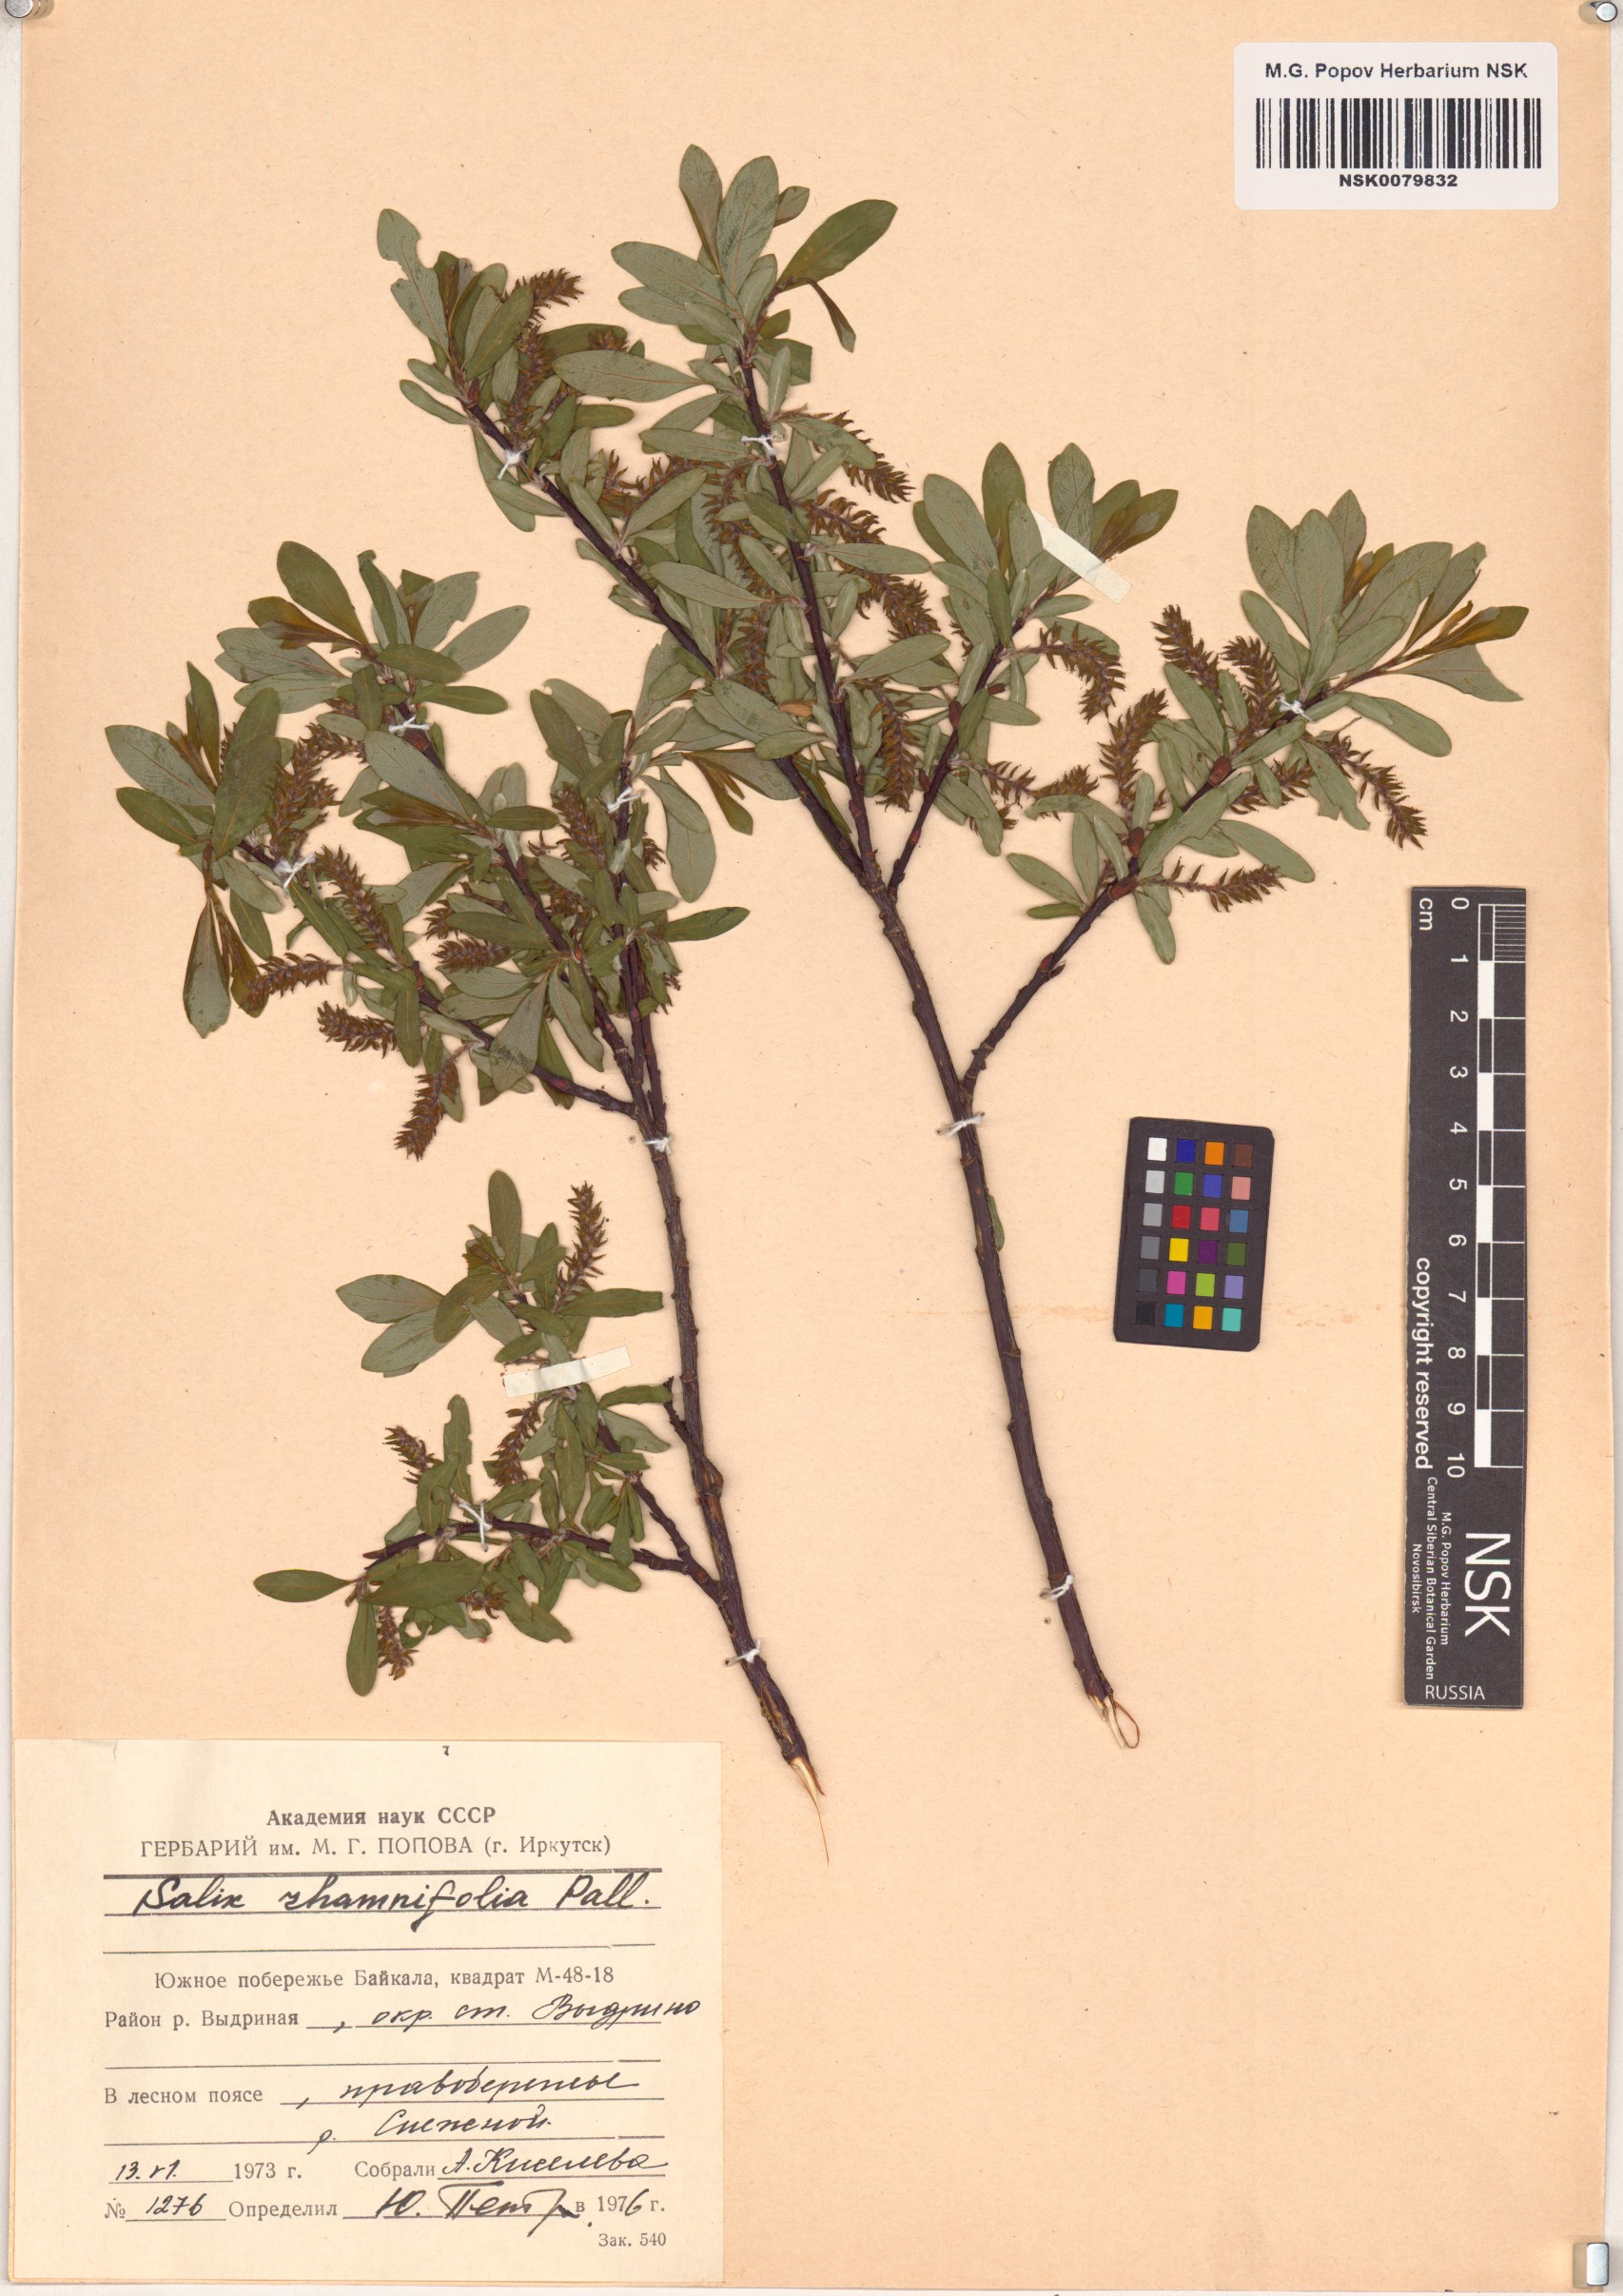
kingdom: Plantae
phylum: Tracheophyta
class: Magnoliopsida
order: Malpighiales
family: Salicaceae
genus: Salix
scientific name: Salix rhamnifolia
